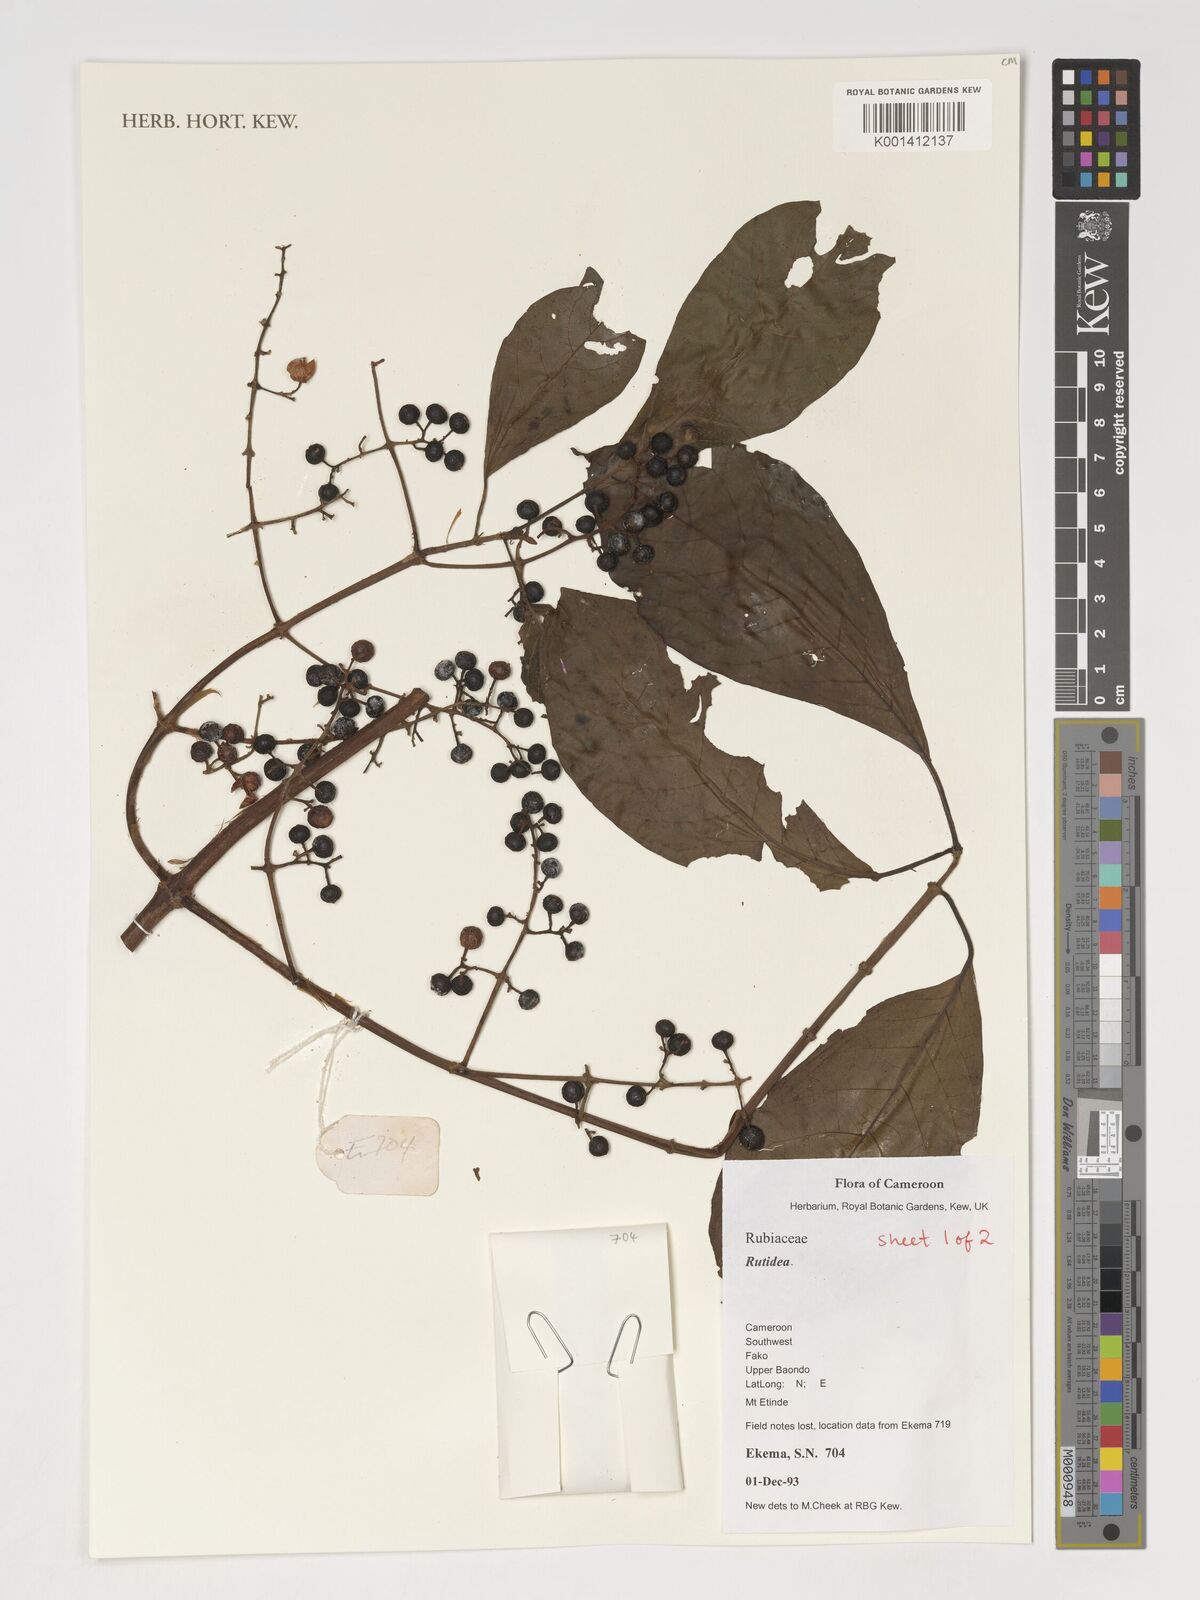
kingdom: Plantae
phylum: Tracheophyta
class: Magnoliopsida
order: Gentianales
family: Rubiaceae
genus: Rutidea
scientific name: Rutidea
